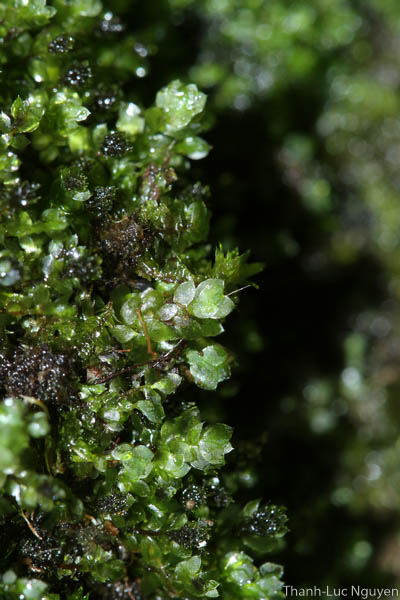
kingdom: Plantae
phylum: Bryophyta
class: Bryopsida
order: Hookeriales
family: Hookeriaceae
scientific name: Hookeriaceae
